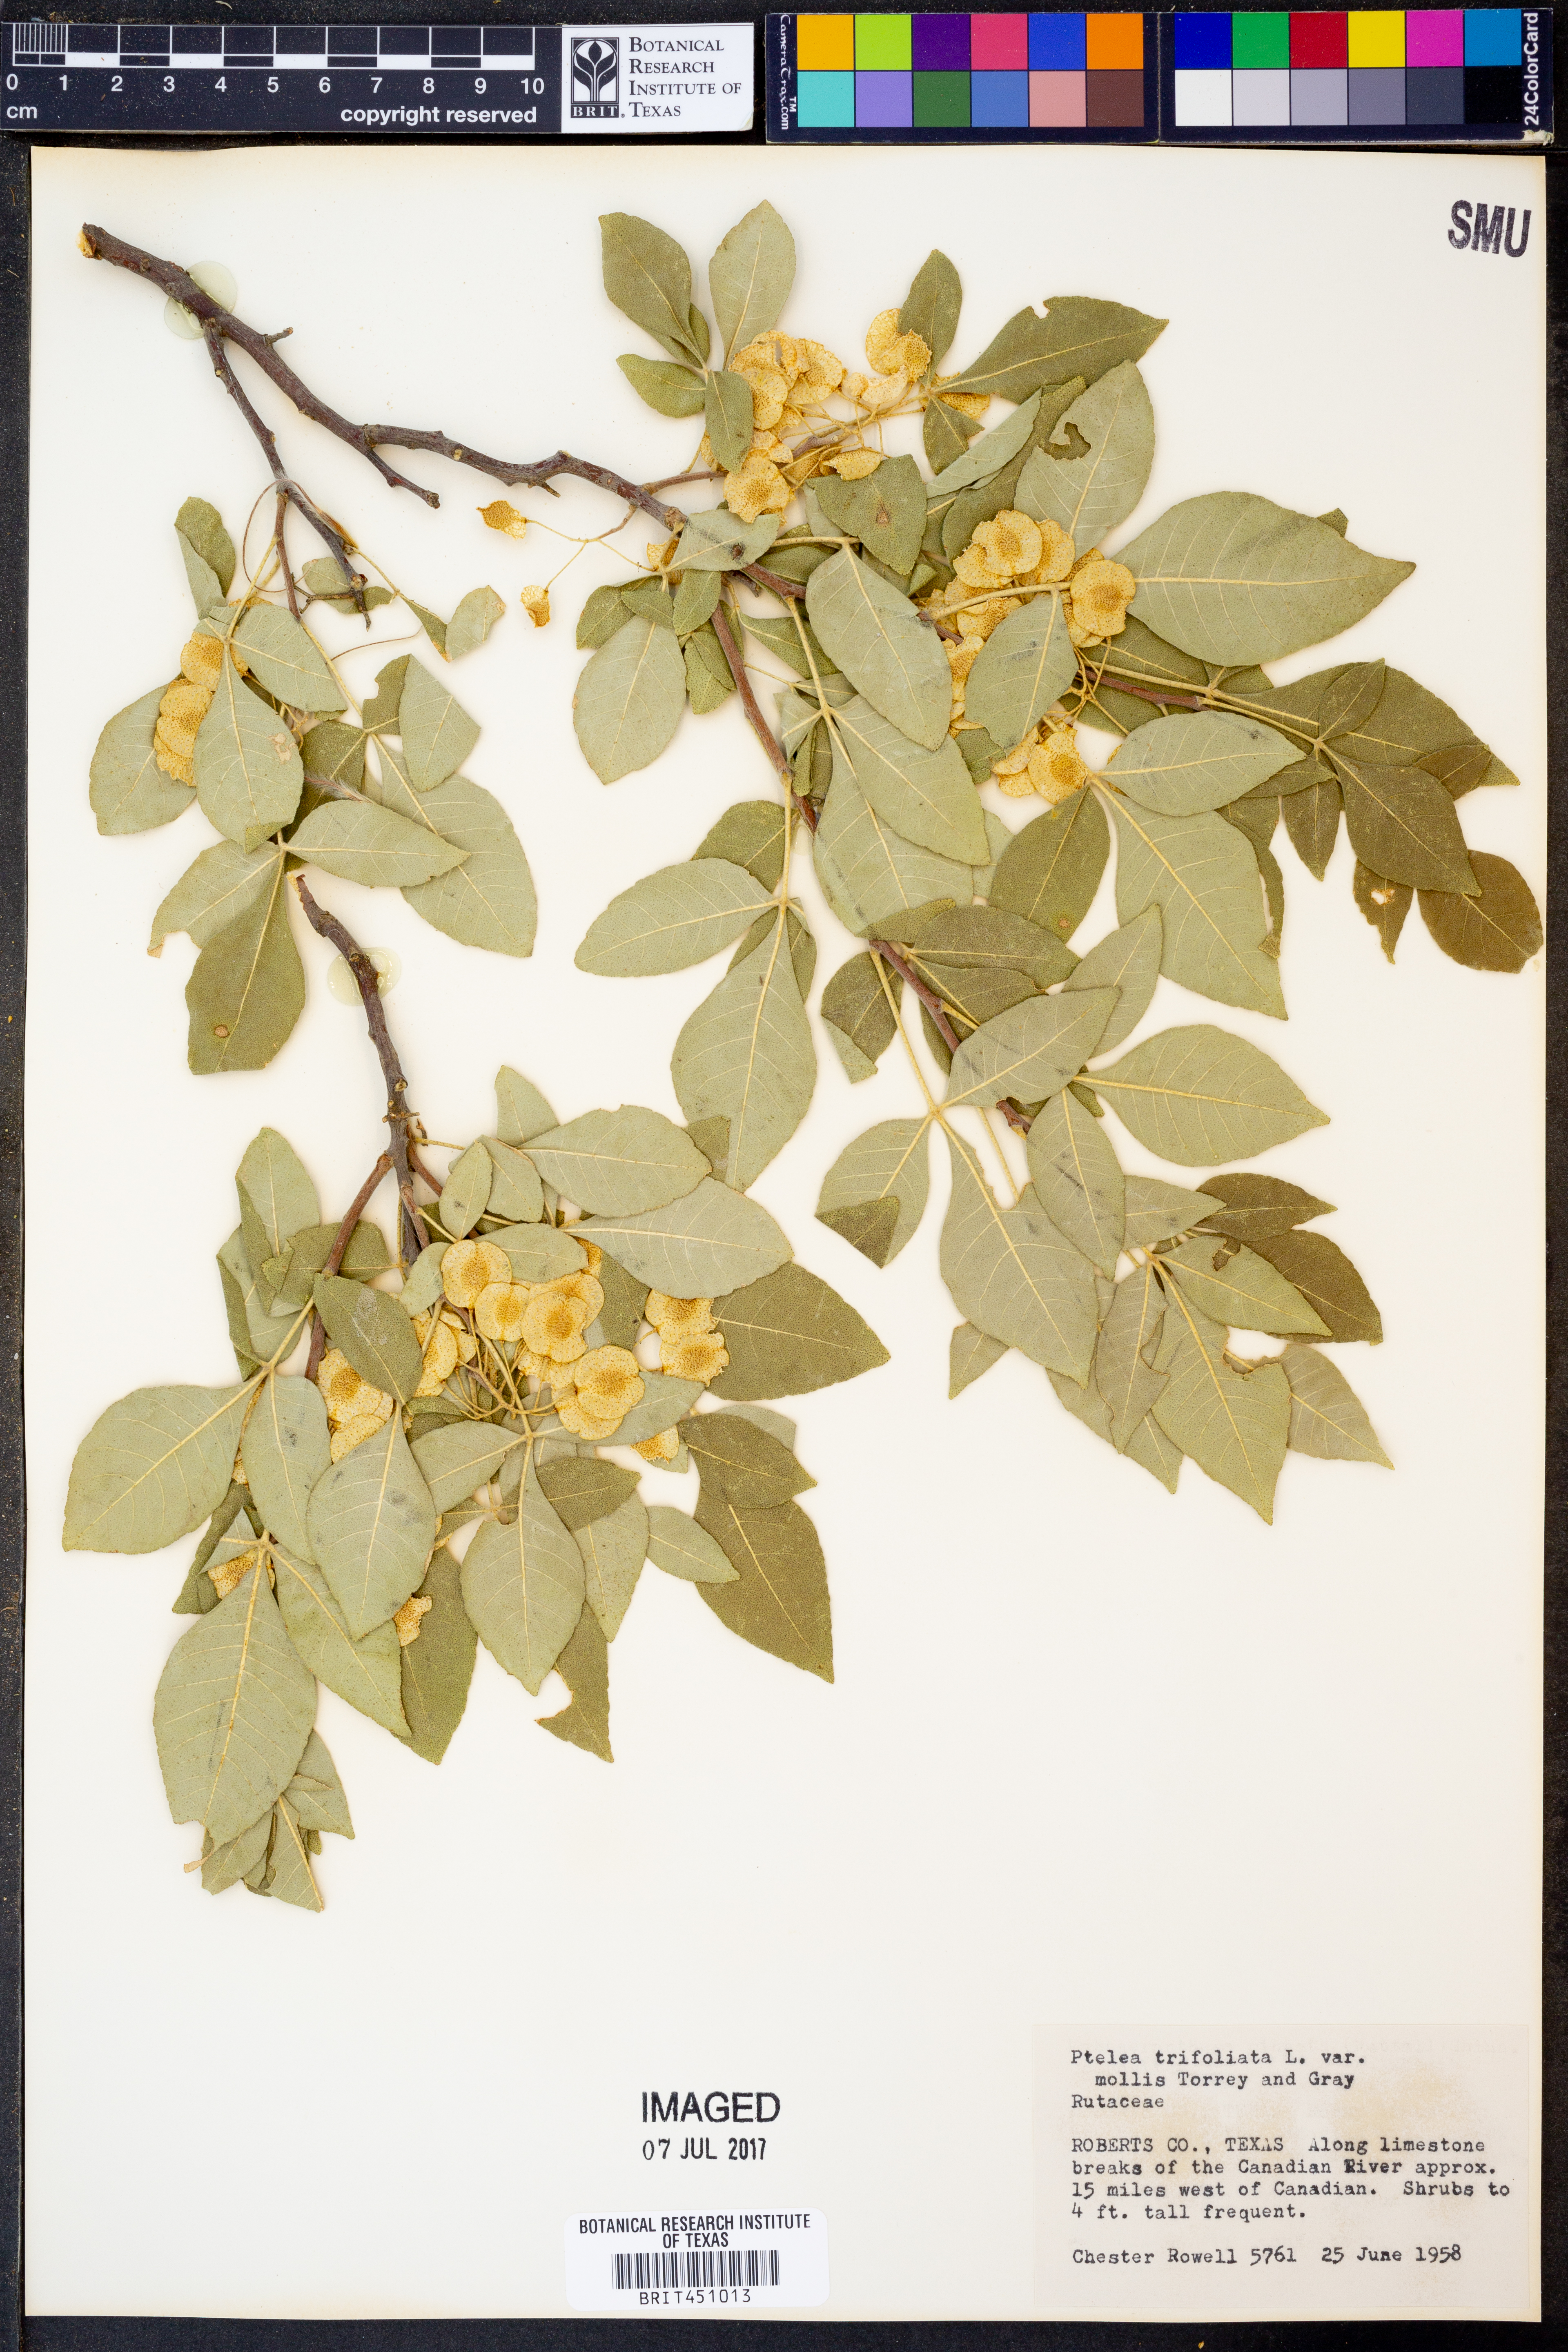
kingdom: Plantae
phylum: Tracheophyta
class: Magnoliopsida
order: Sapindales
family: Rutaceae
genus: Ptelea
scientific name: Ptelea trifoliata
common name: Common hop-tree
